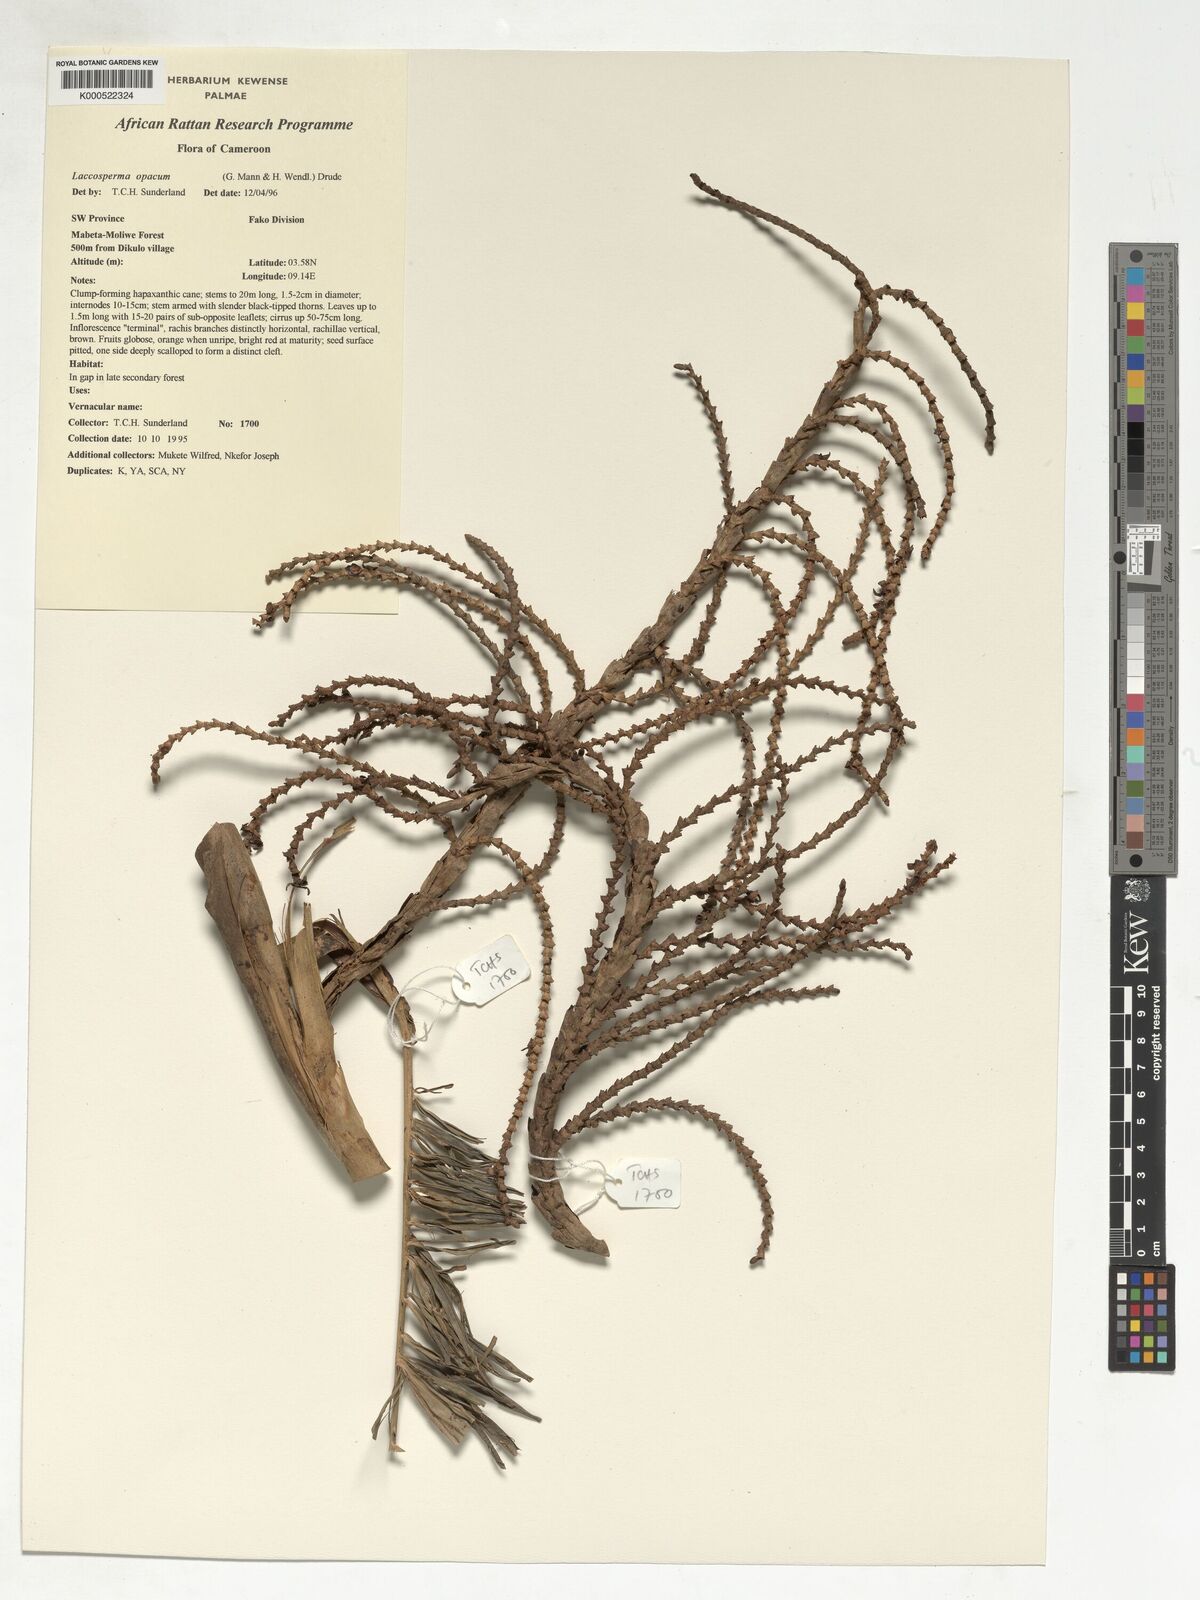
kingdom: Plantae
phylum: Tracheophyta
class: Liliopsida
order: Arecales
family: Arecaceae
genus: Laccosperma
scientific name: Laccosperma opacum
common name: Rattan
